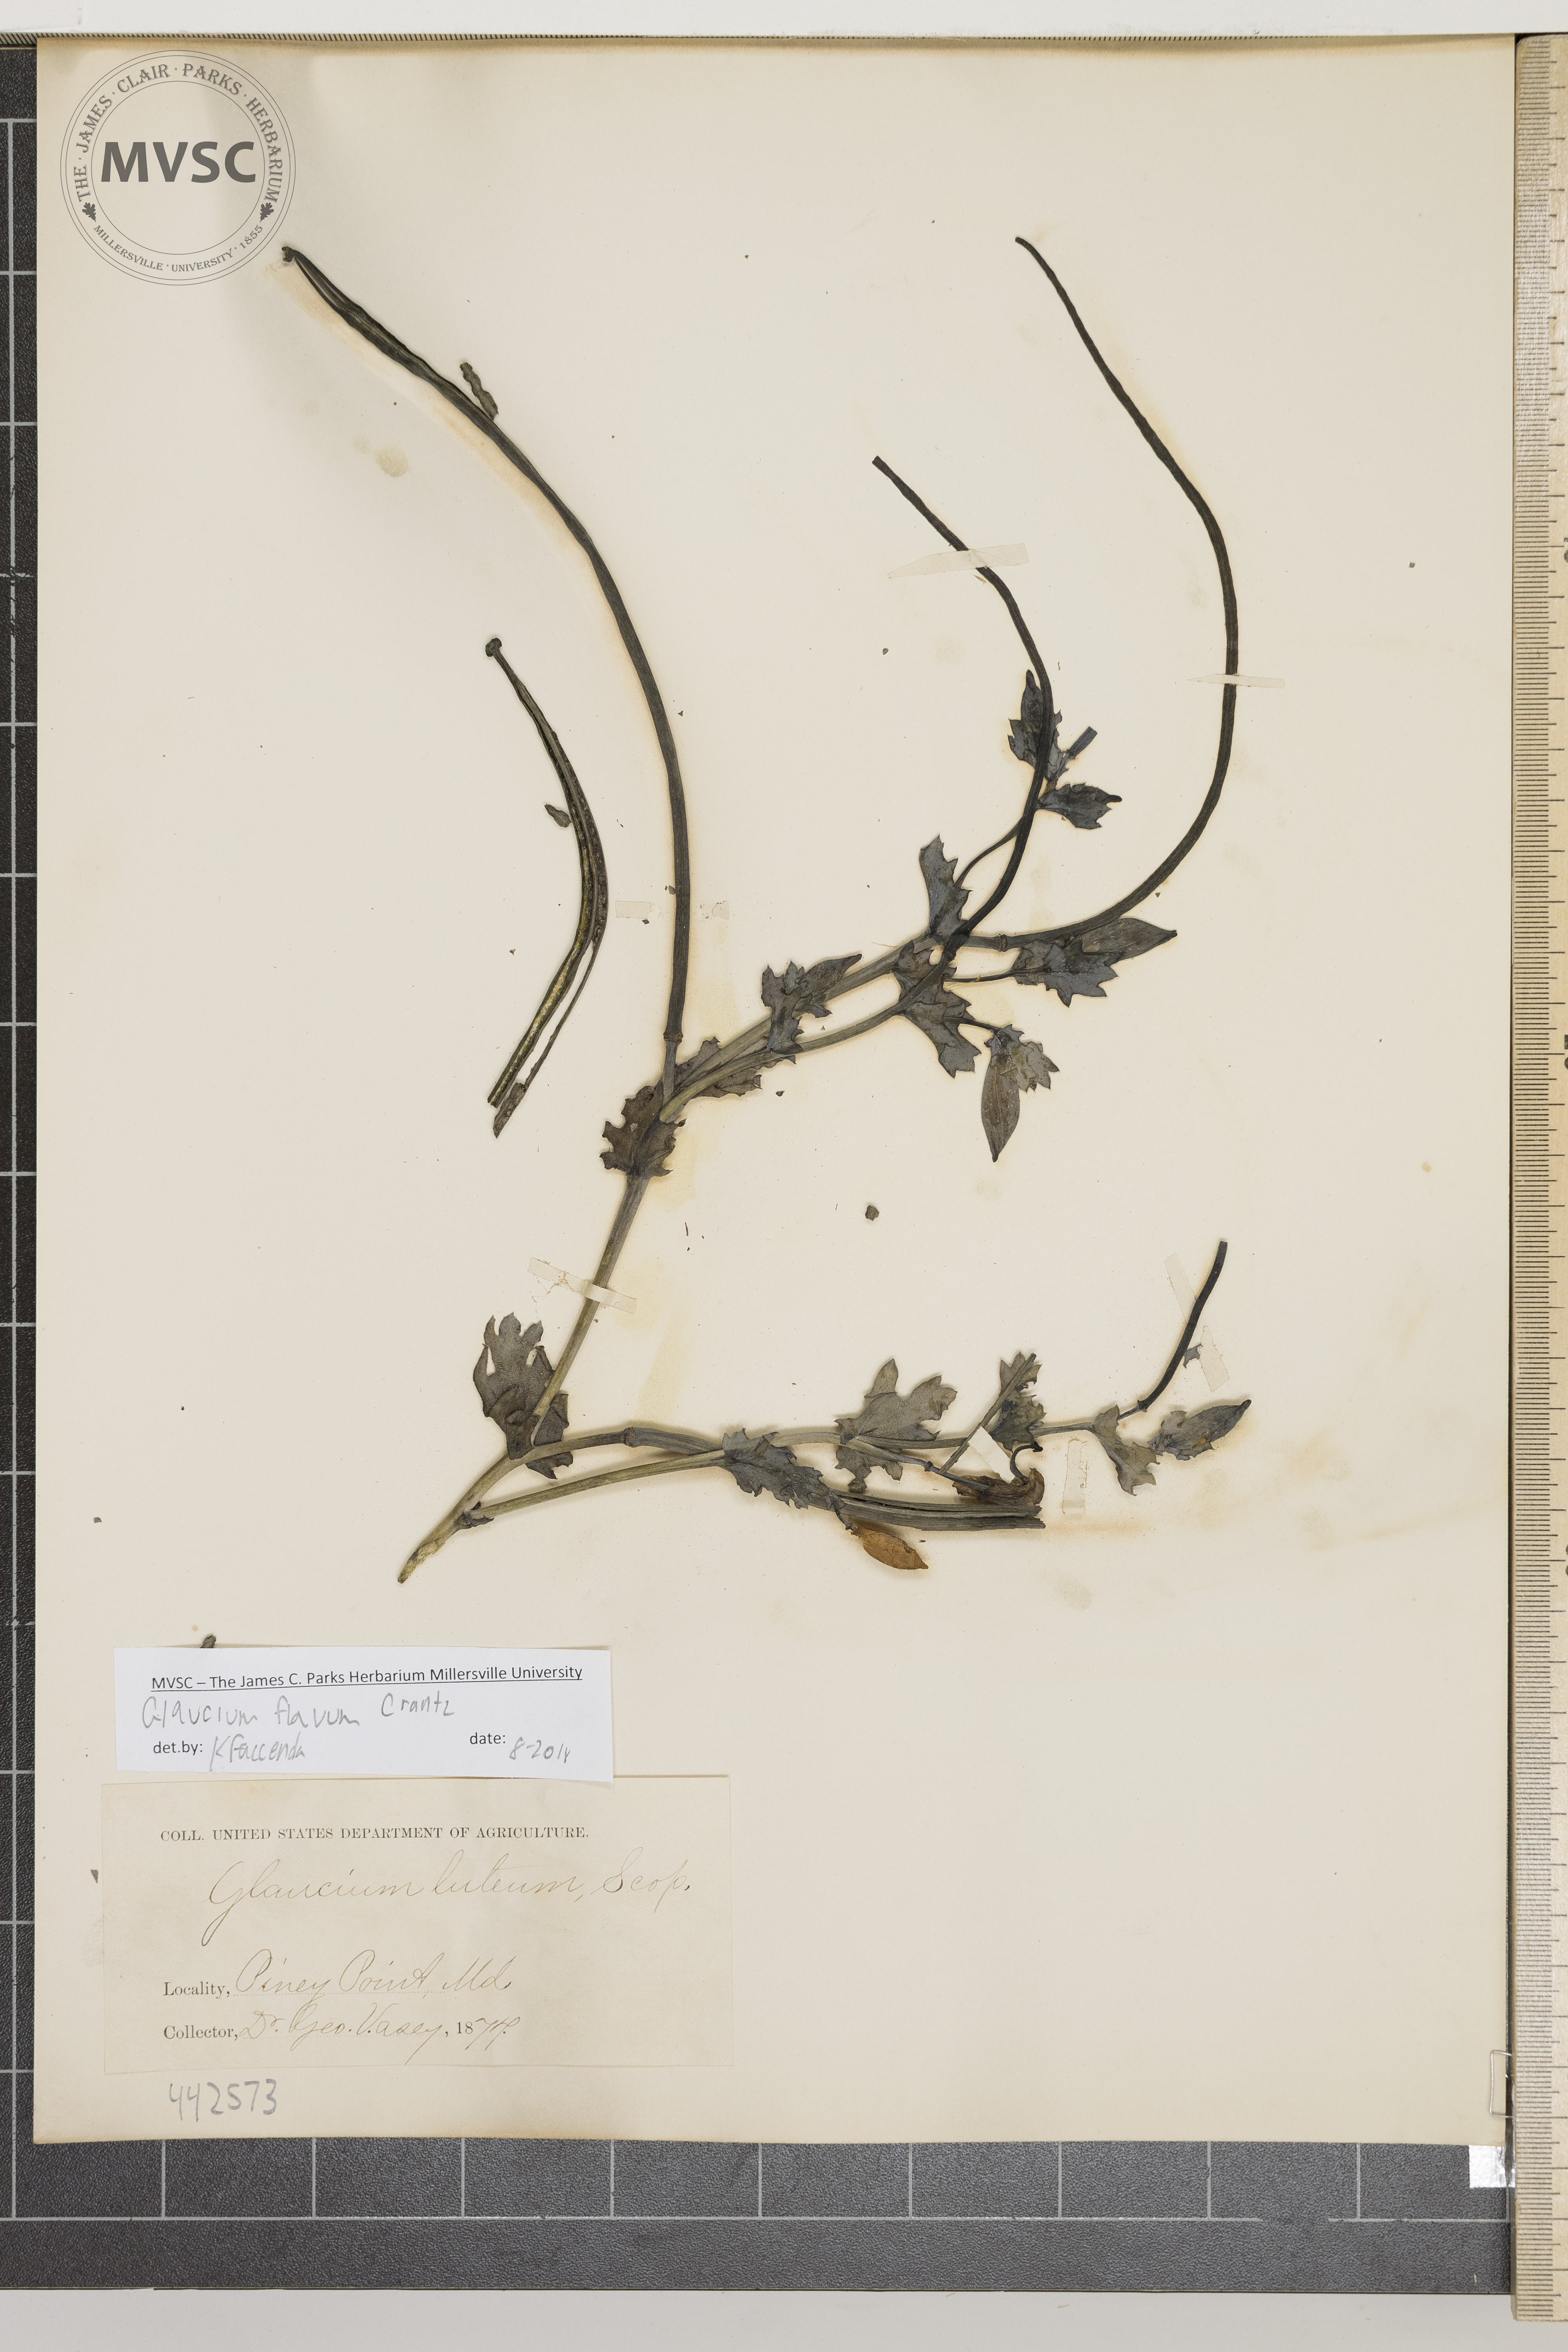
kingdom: Plantae
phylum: Tracheophyta
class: Magnoliopsida
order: Ranunculales
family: Papaveraceae
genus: Glaucium
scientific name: Glaucium flavum
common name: Yellow horned-poppy
